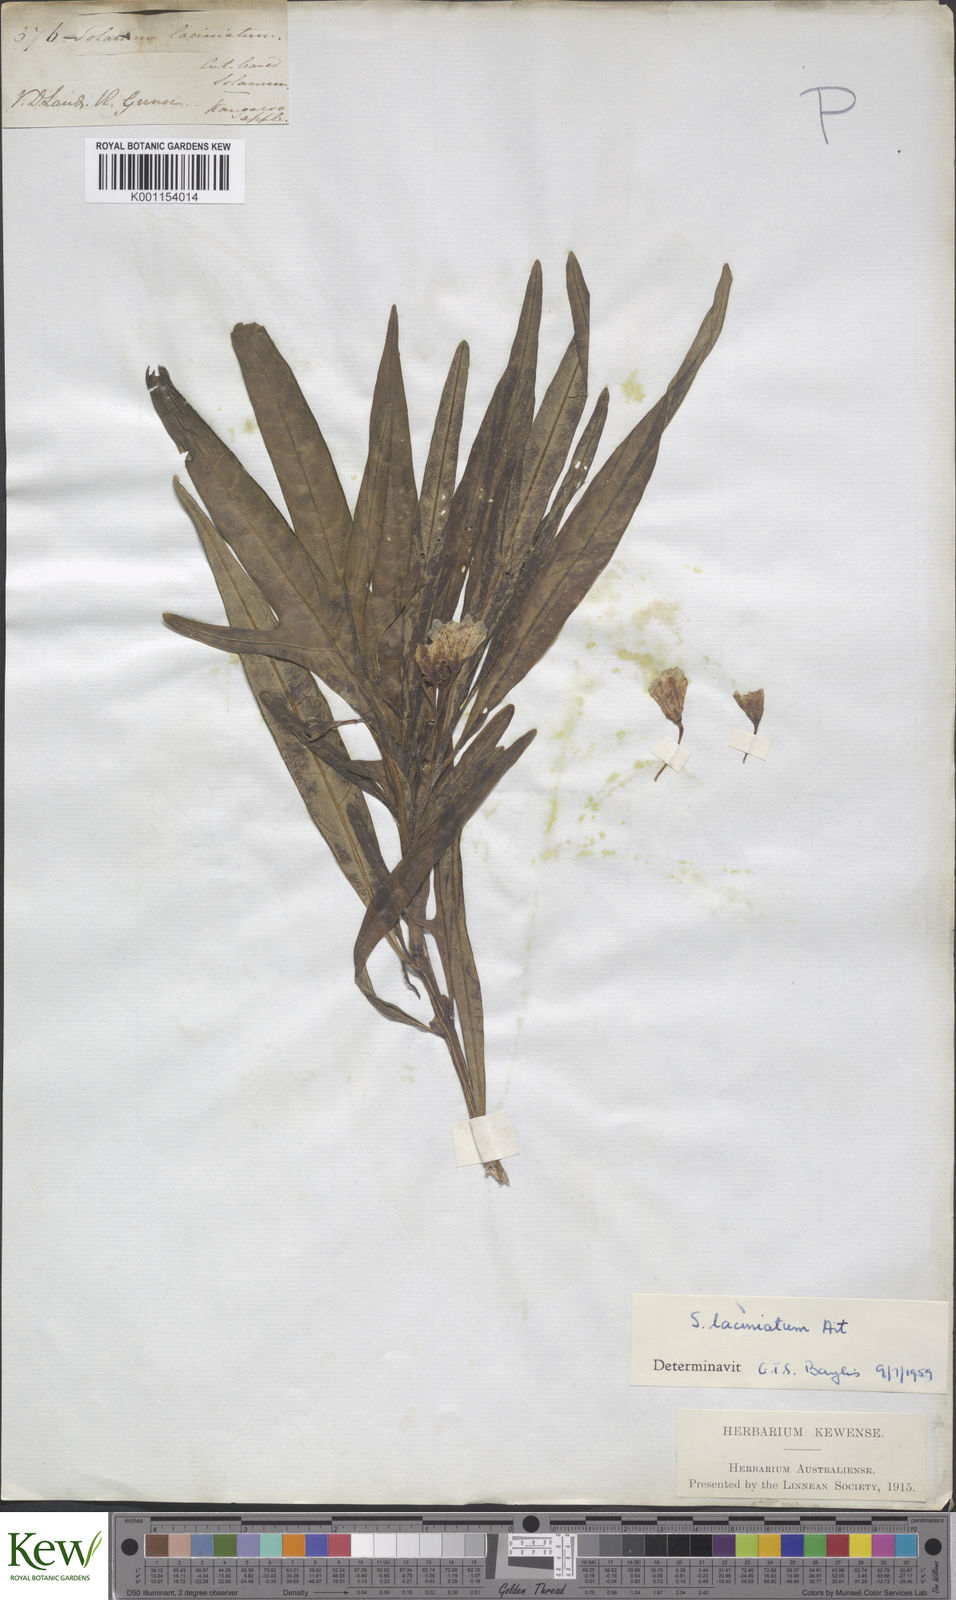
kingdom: Plantae
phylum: Tracheophyta
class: Magnoliopsida
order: Solanales
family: Solanaceae
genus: Solanum
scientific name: Solanum laciniatum
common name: Kangaroo-apple
